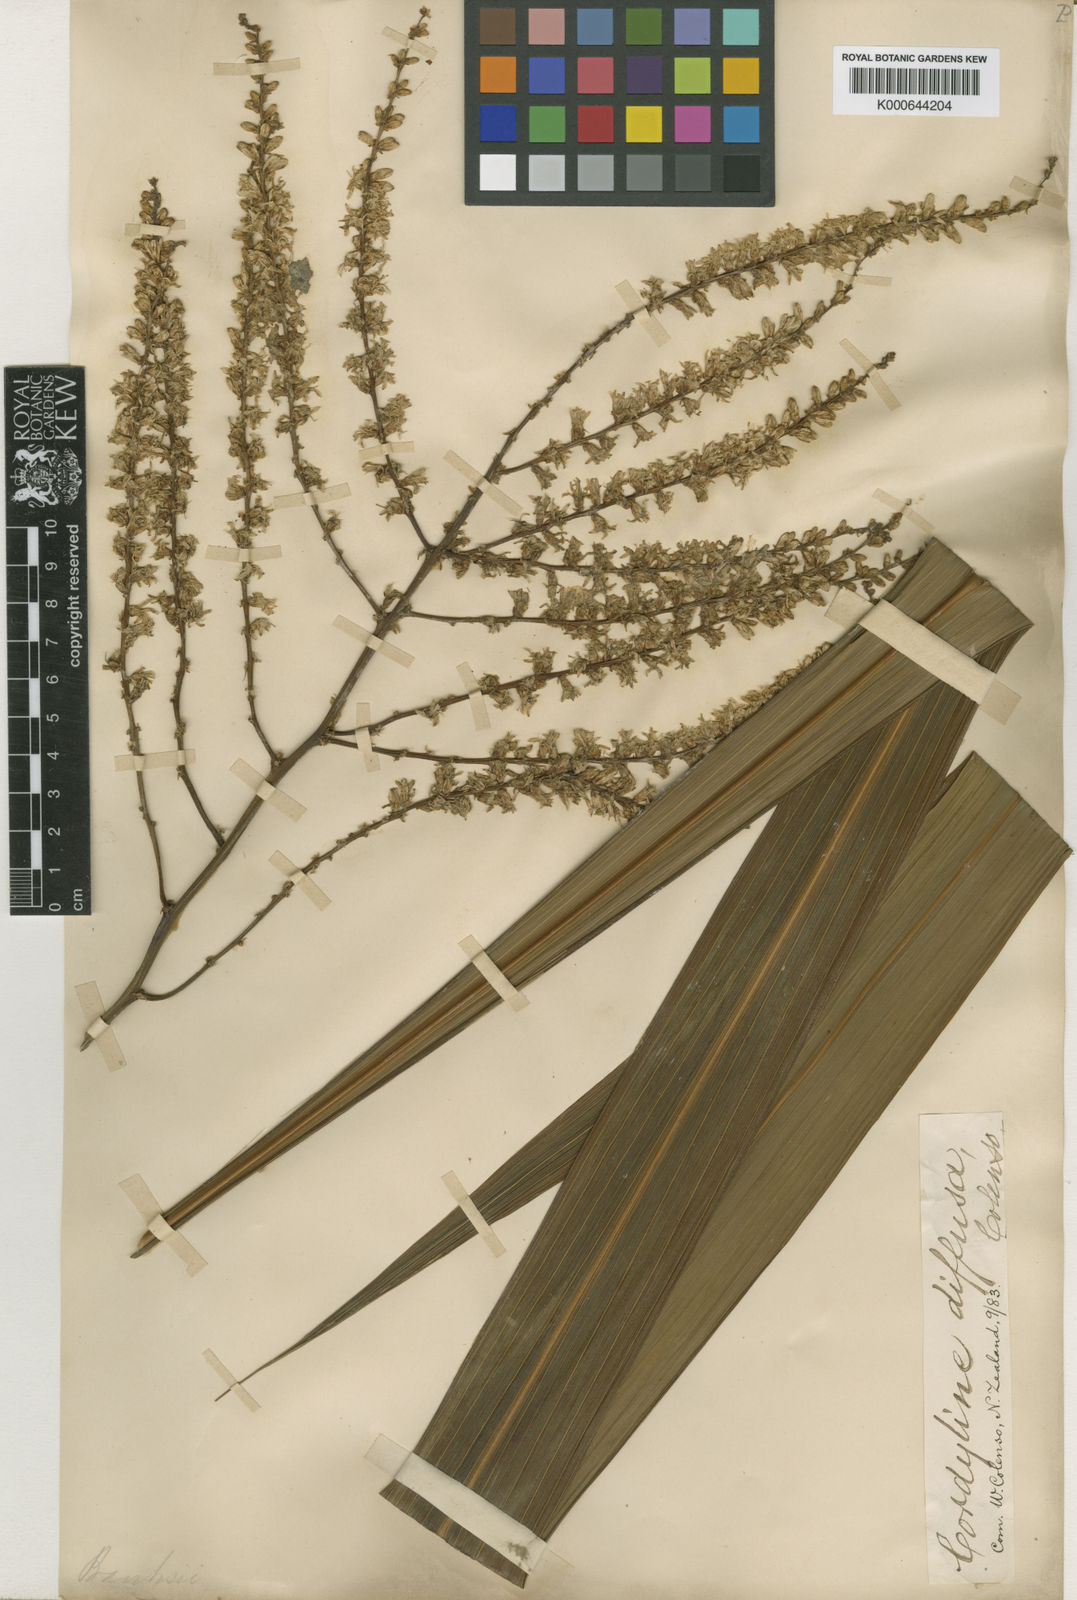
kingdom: Plantae
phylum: Tracheophyta
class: Liliopsida
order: Asparagales
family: Asparagaceae
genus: Cordyline
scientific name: Cordyline banksii
